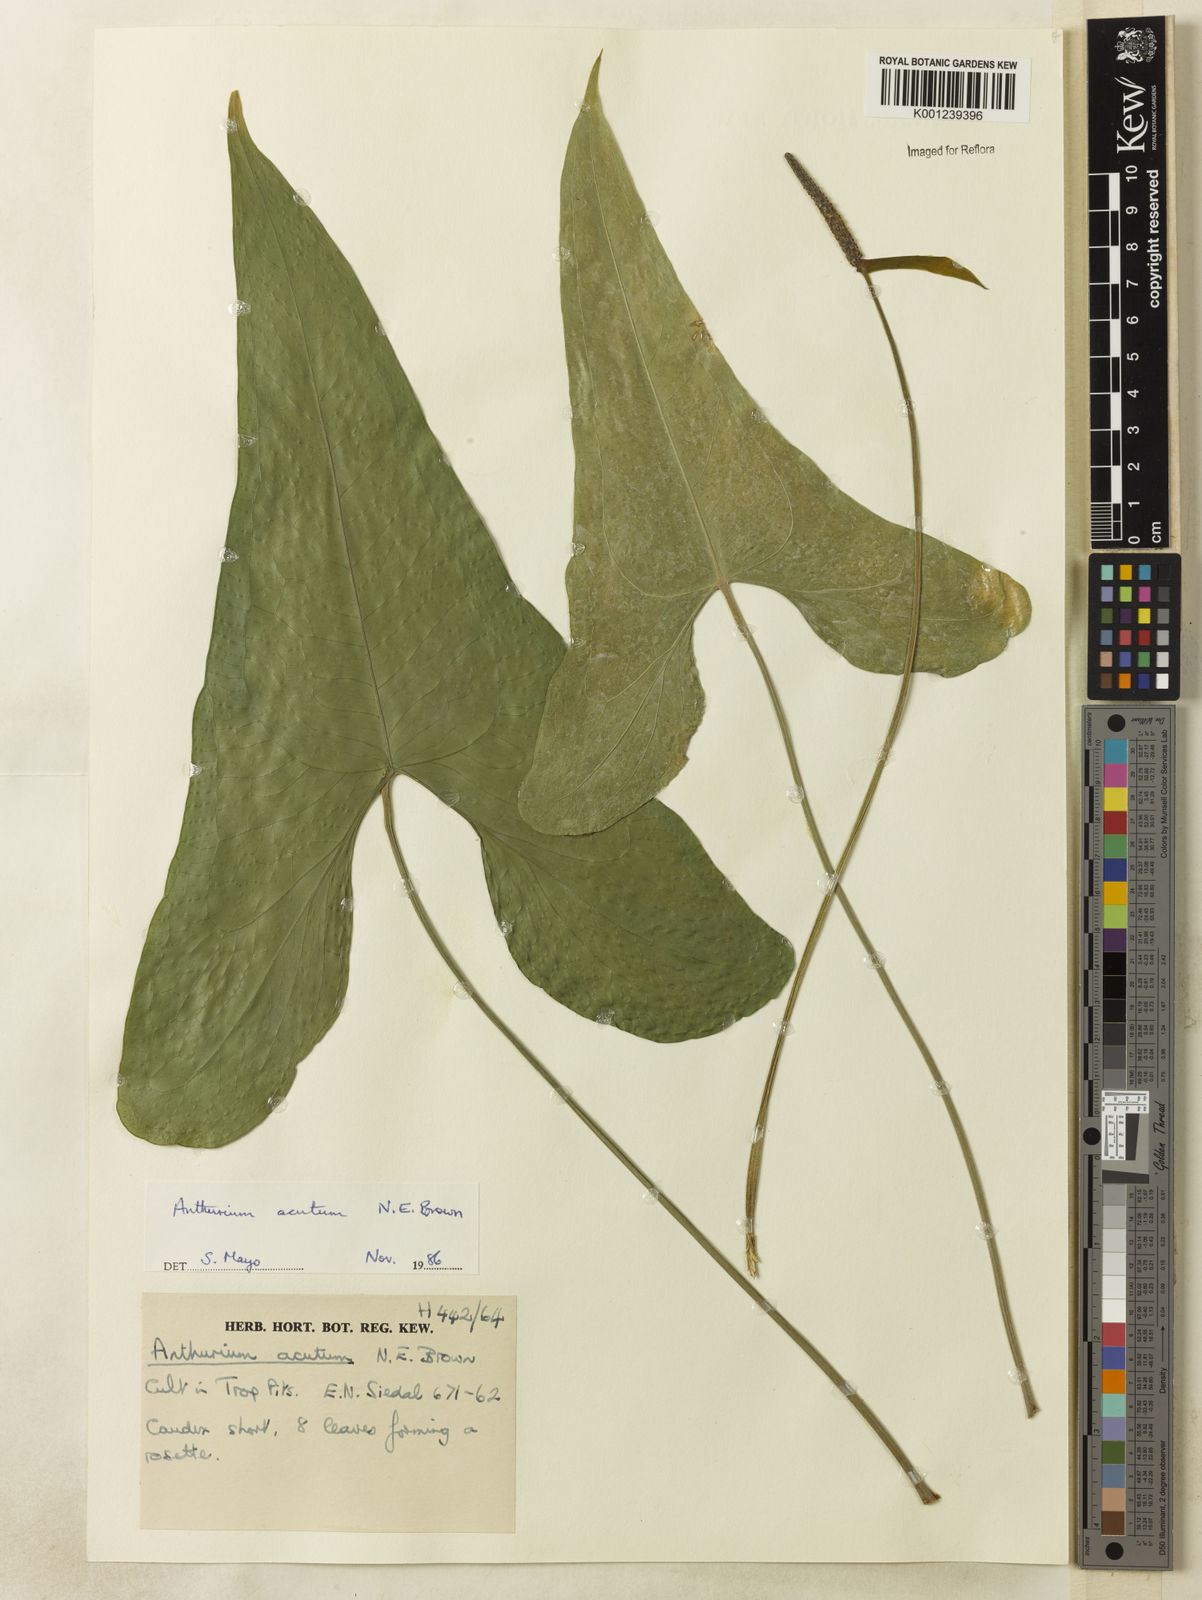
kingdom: Plantae
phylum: Tracheophyta
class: Liliopsida
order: Alismatales
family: Araceae
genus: Anthurium
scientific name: Anthurium acutum
